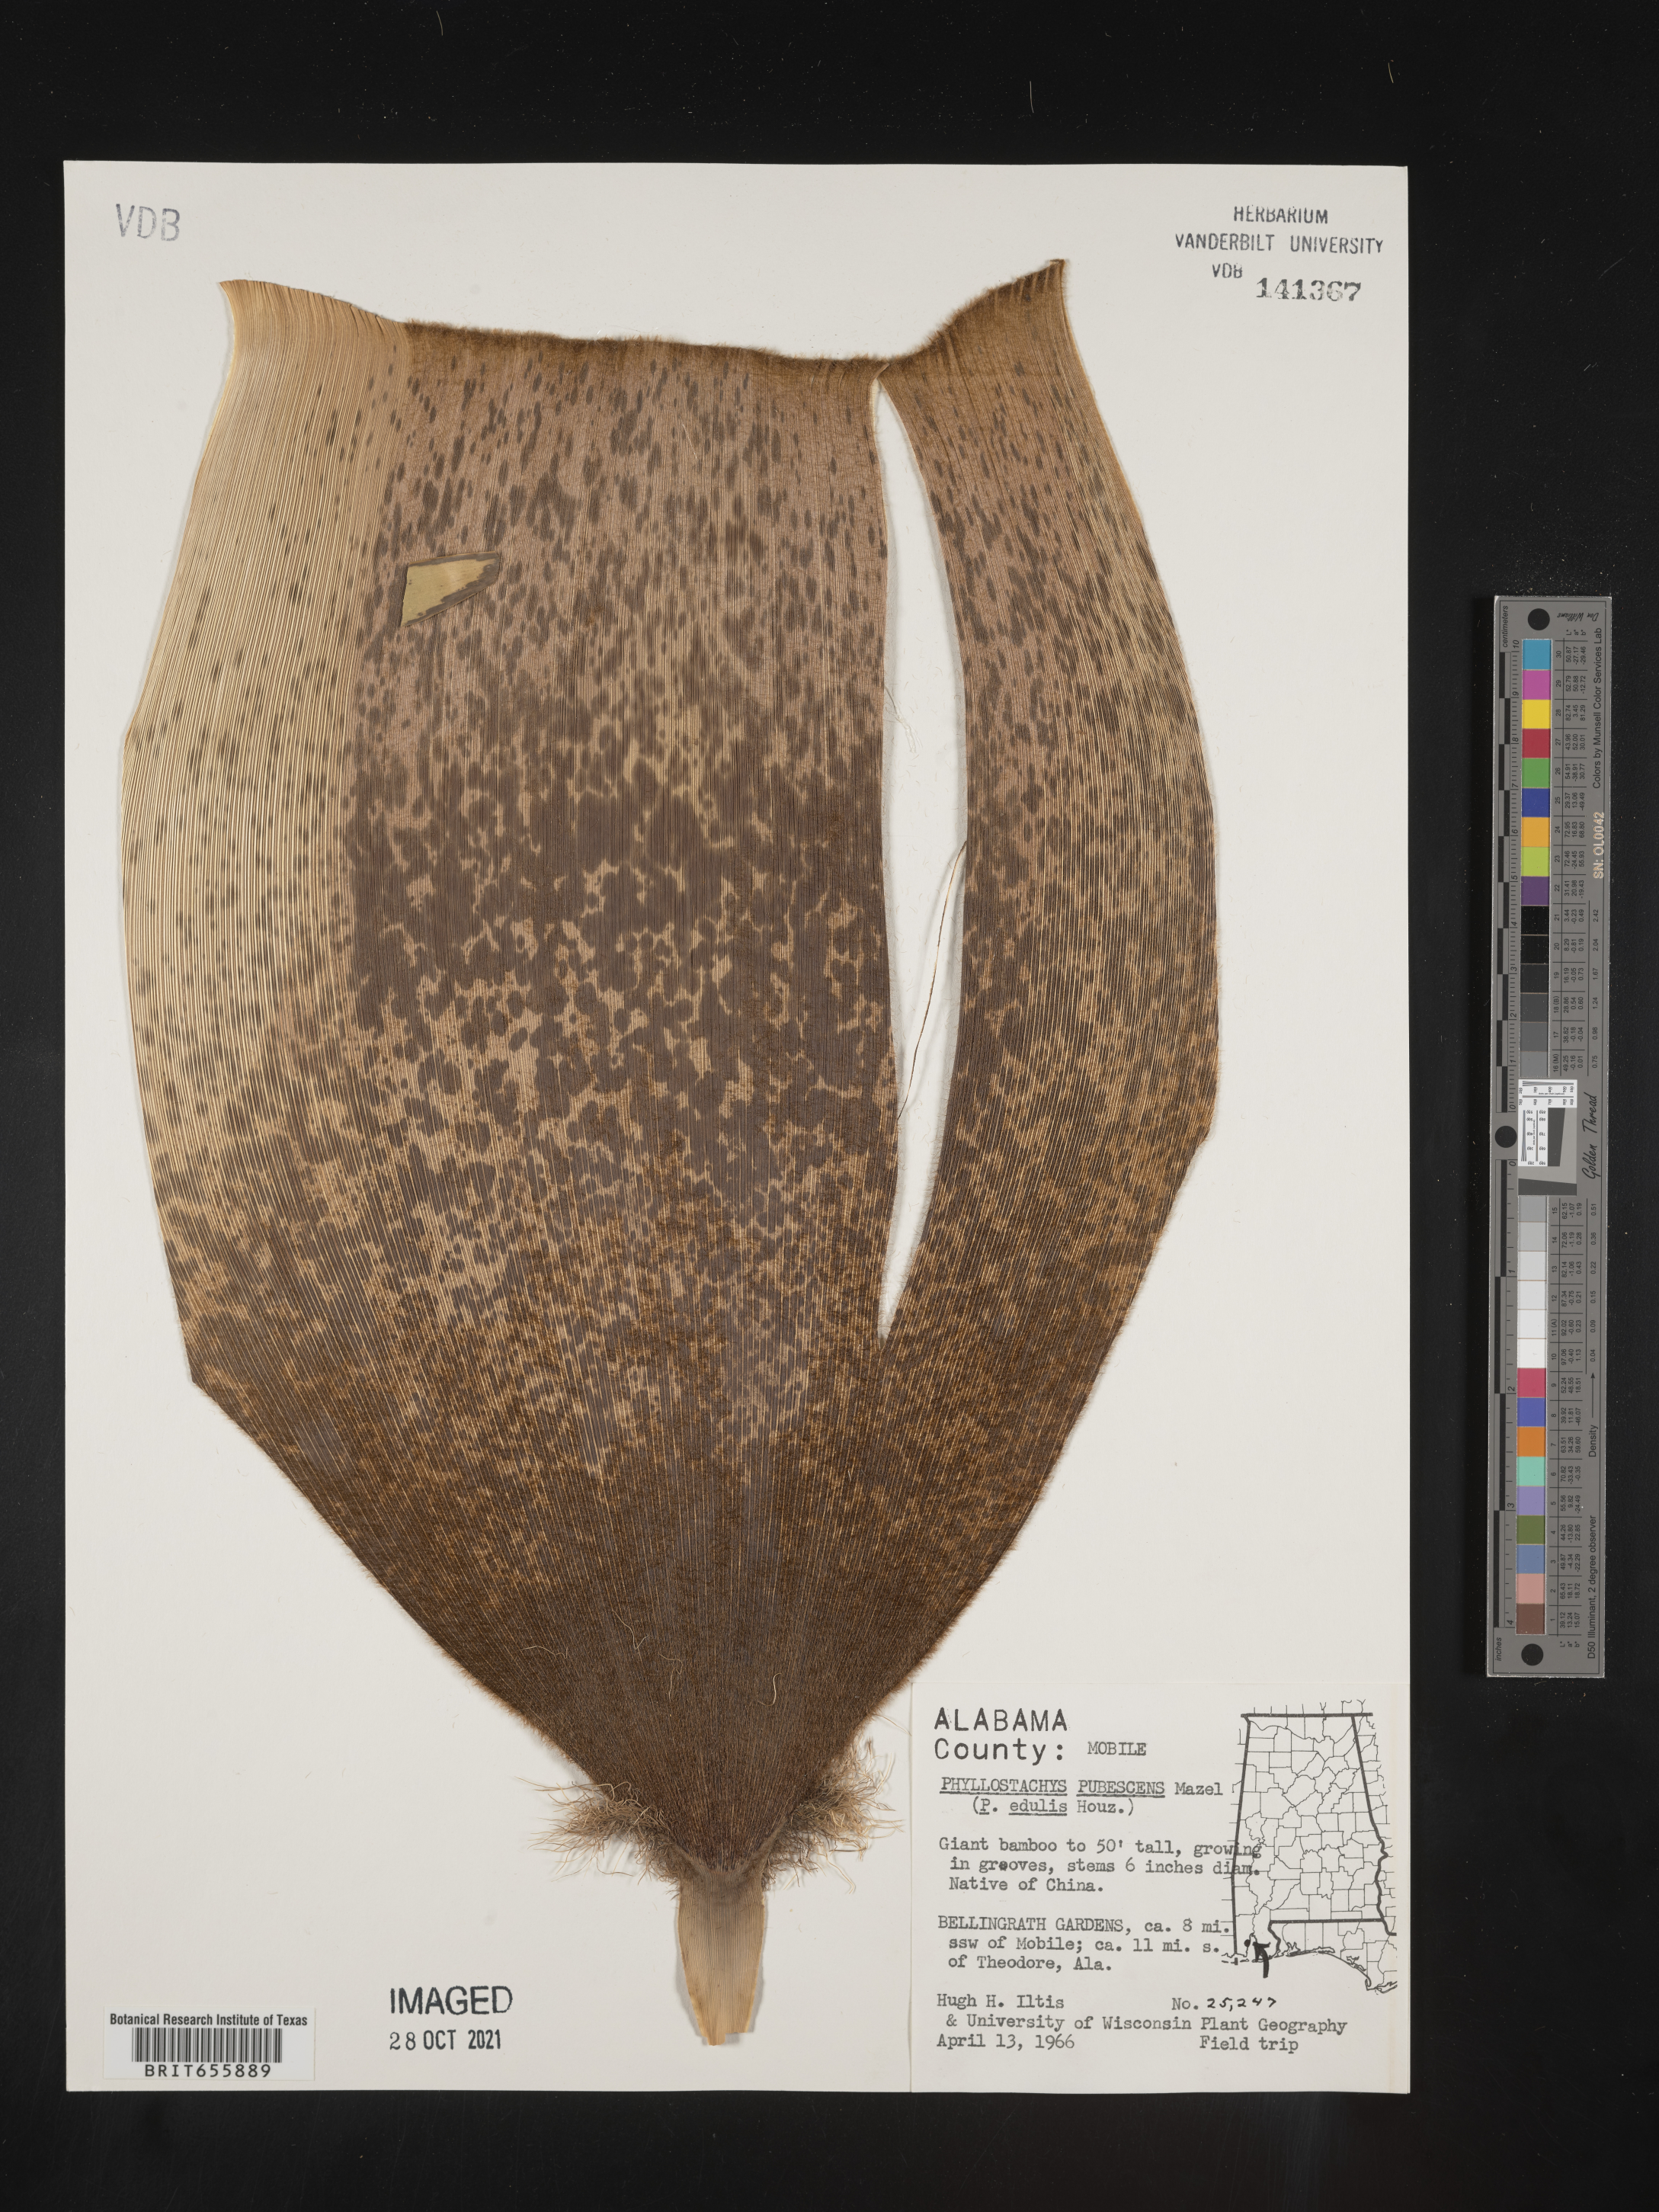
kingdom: Plantae
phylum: Tracheophyta
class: Liliopsida
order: Poales
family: Poaceae
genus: Phyllostachys
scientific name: Phyllostachys
